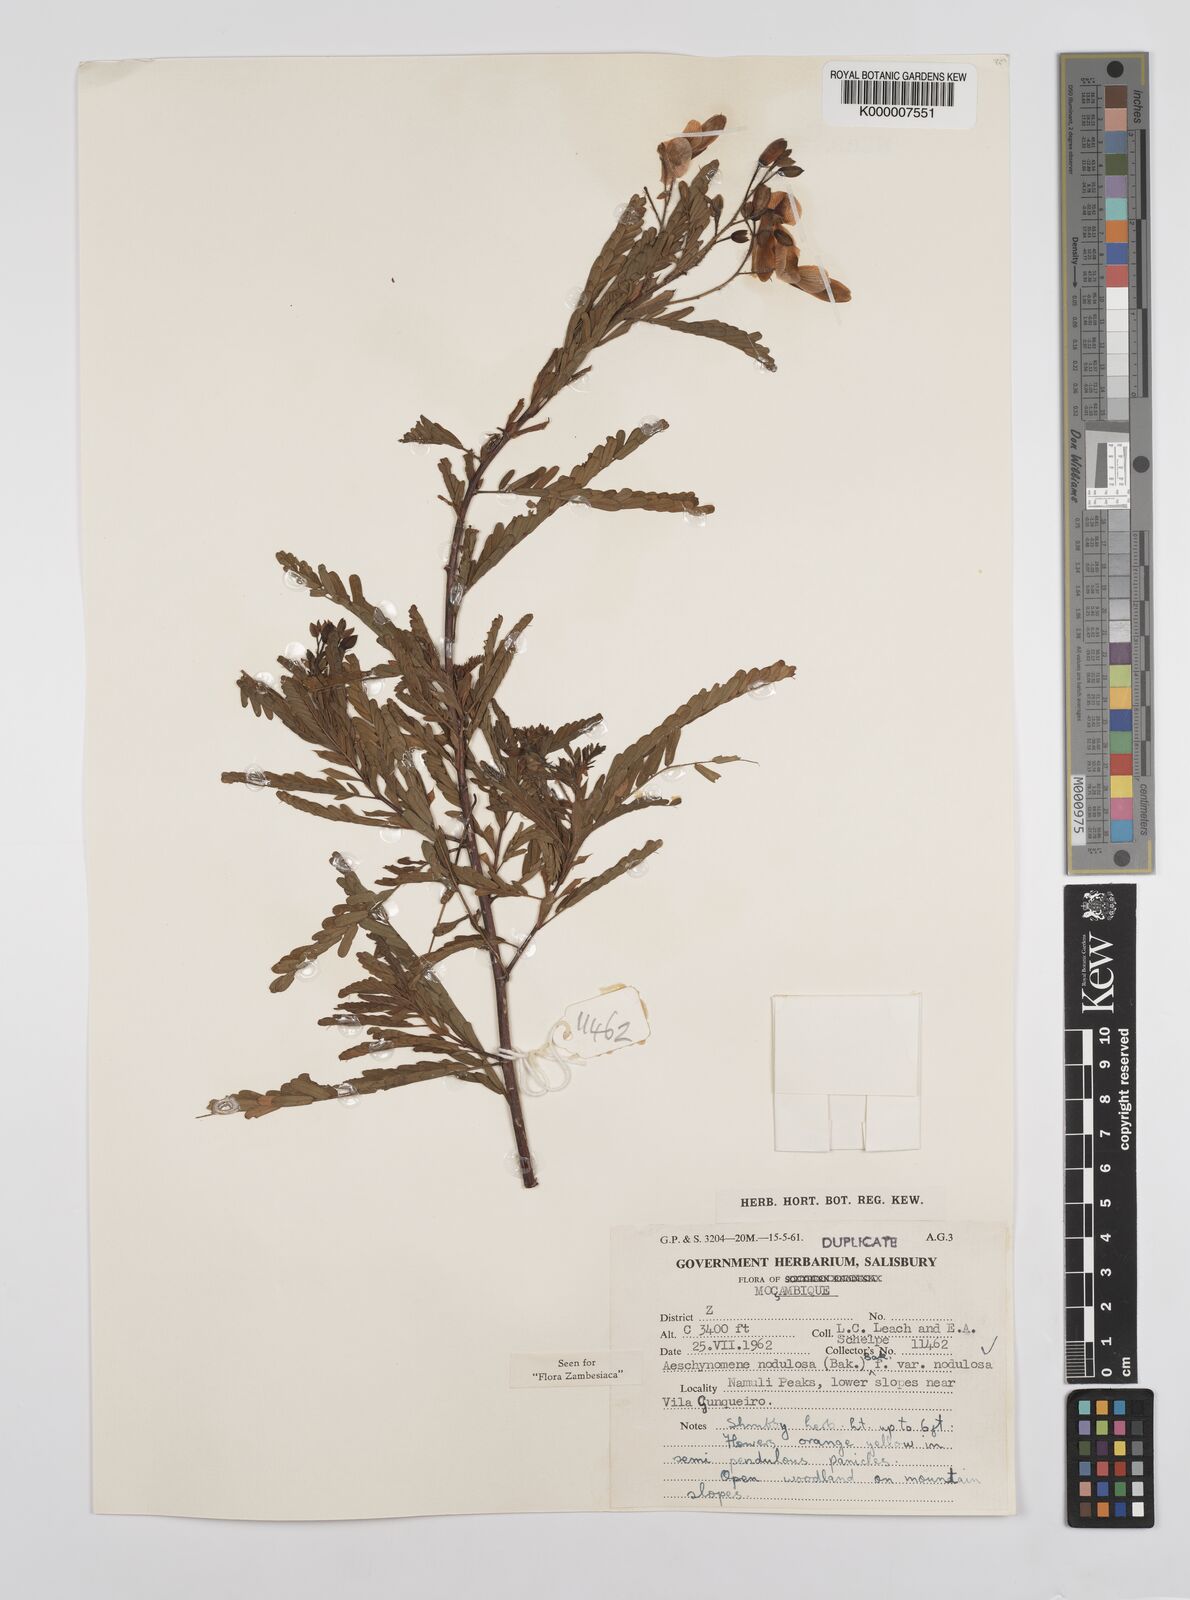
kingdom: Plantae
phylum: Tracheophyta
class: Magnoliopsida
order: Fabales
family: Fabaceae
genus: Aeschynomene
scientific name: Aeschynomene nodulosa
